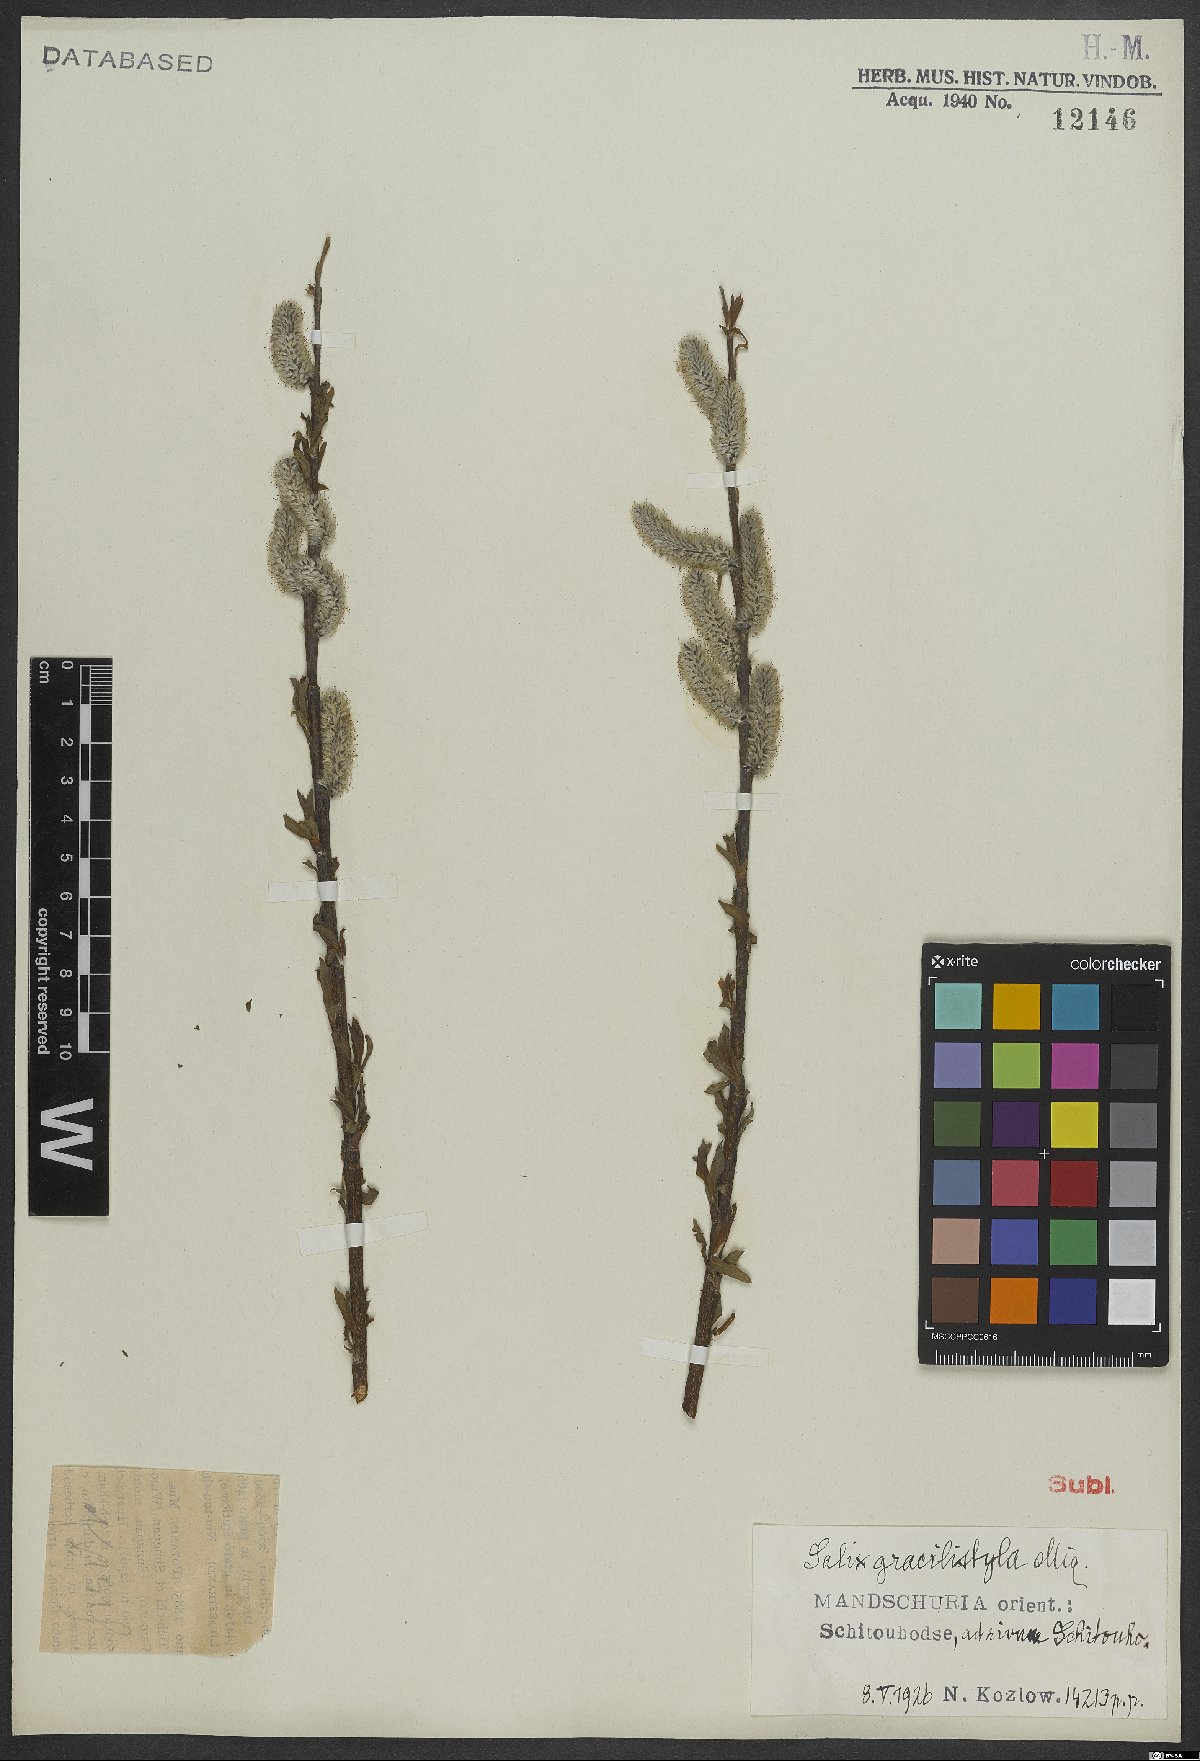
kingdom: Plantae
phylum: Tracheophyta
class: Magnoliopsida
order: Malpighiales
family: Salicaceae
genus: Salix
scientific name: Salix gracilistyla
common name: Rose-gold pussy willow
